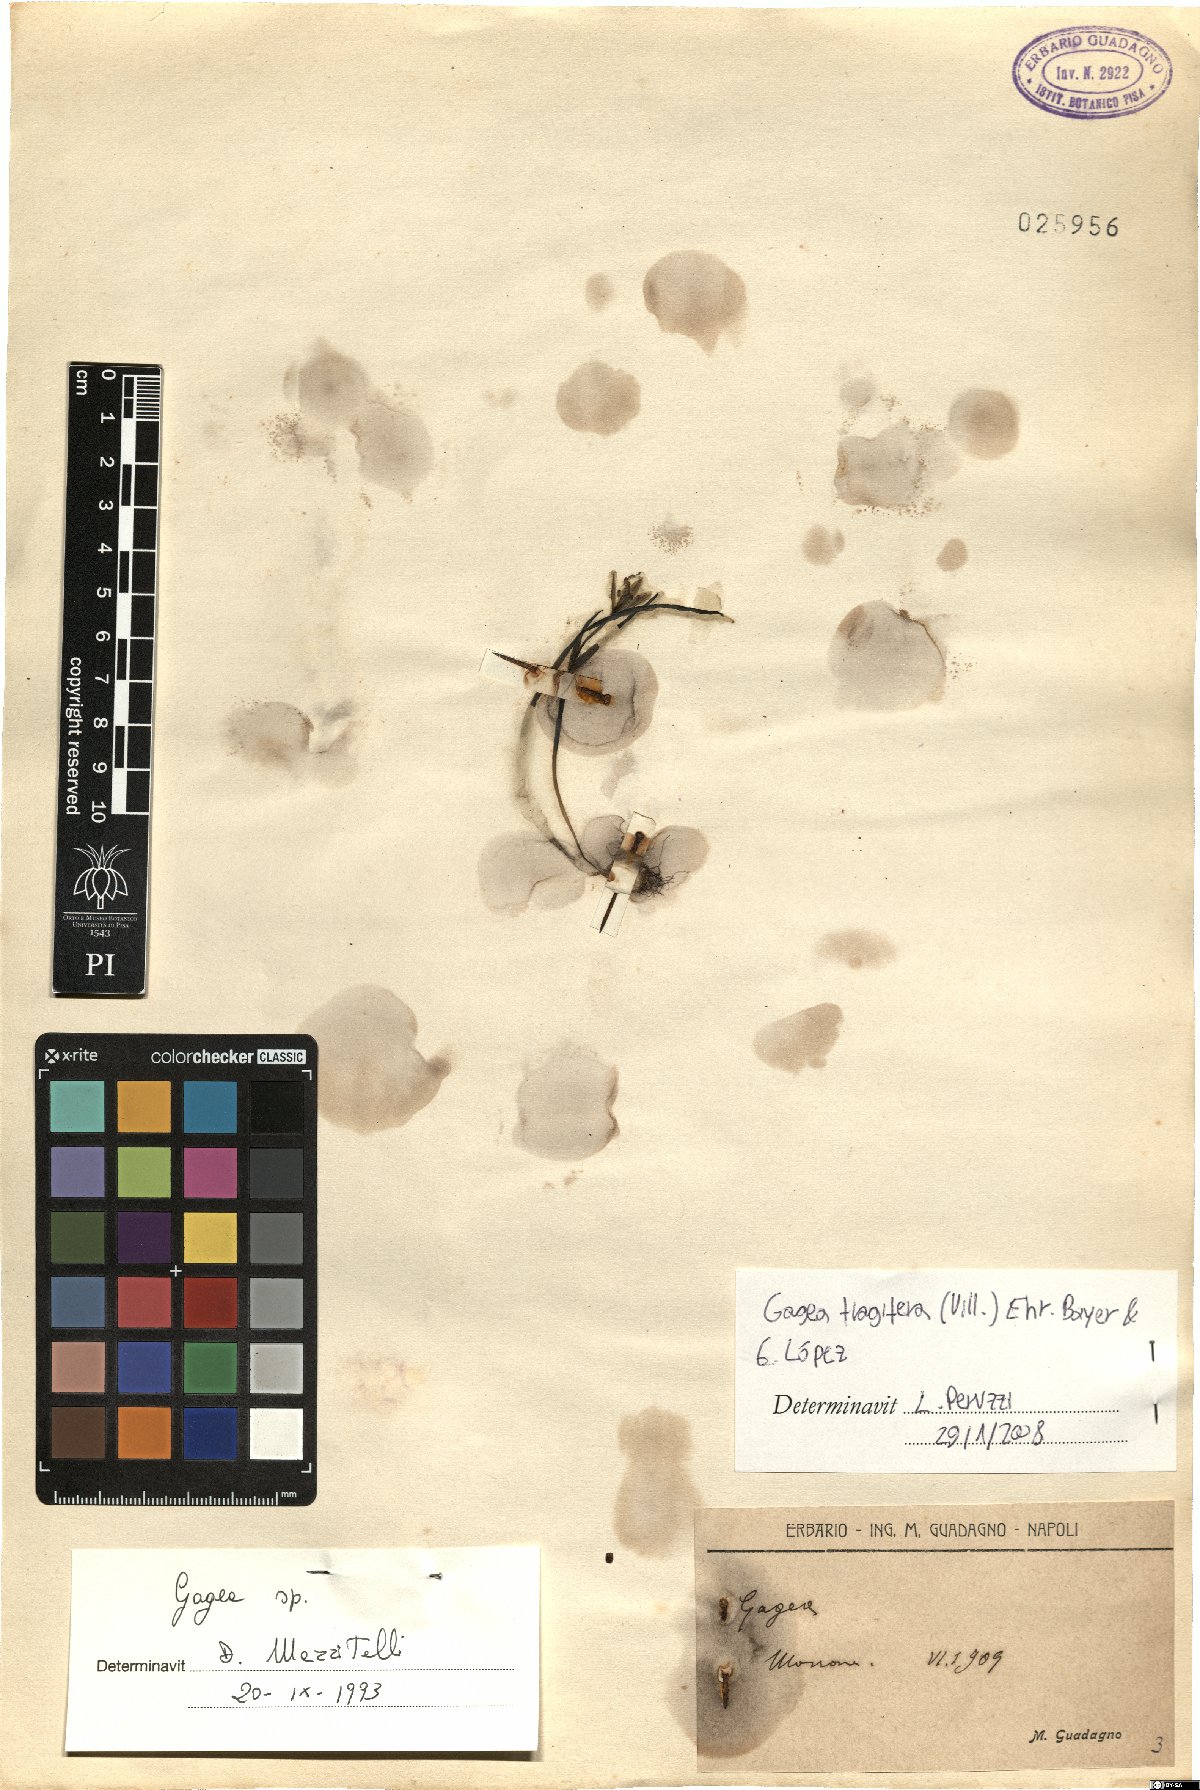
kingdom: Plantae
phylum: Tracheophyta
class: Liliopsida
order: Liliales
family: Liliaceae
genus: Gagea
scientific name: Gagea fragifera
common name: Lily
